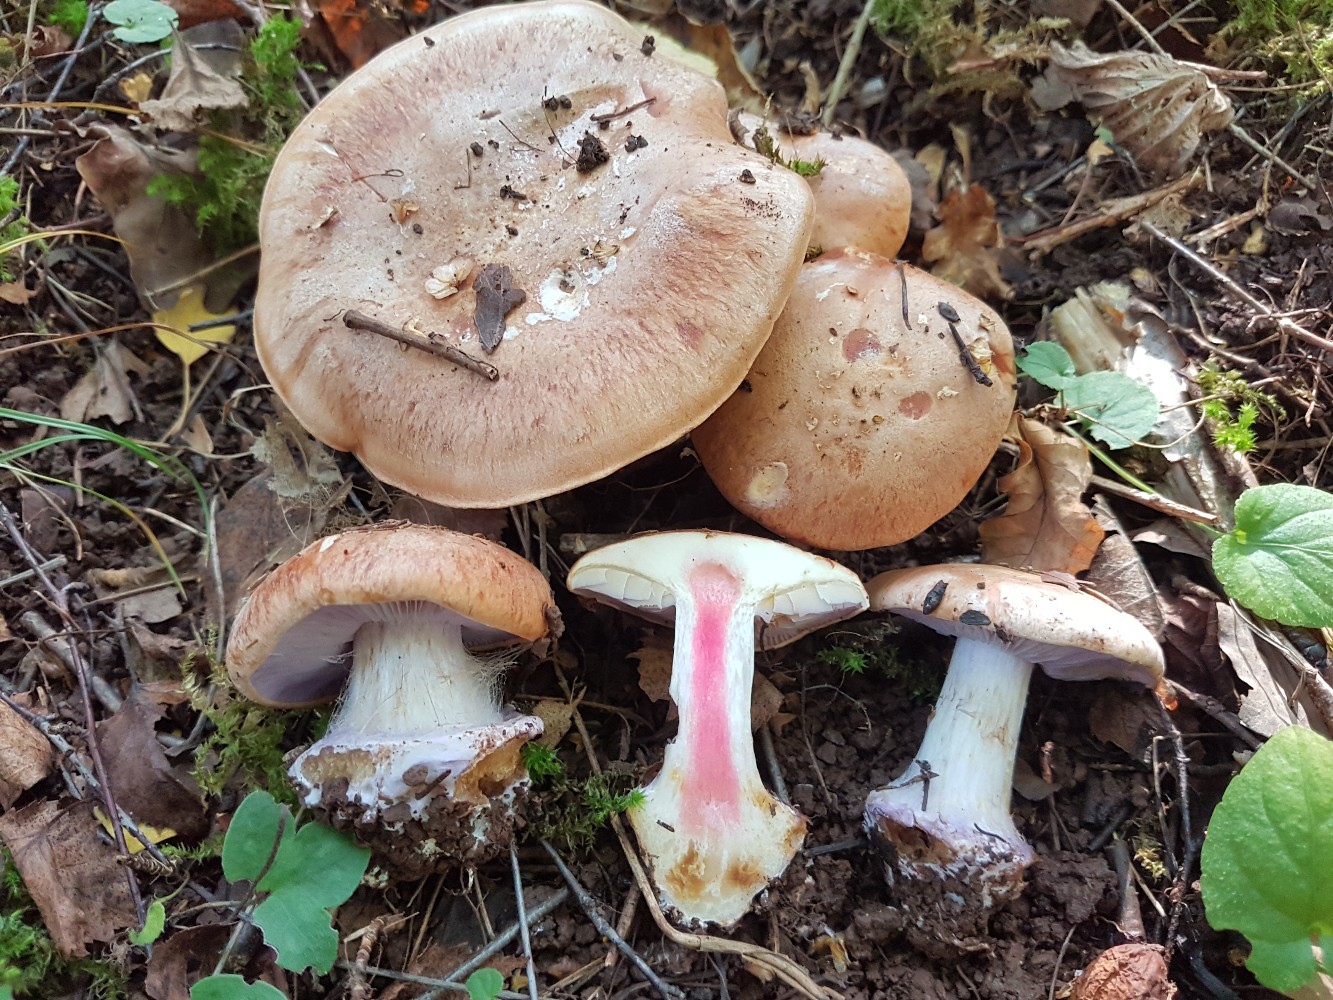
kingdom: Fungi
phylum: Basidiomycota
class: Agaricomycetes
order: Agaricales
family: Cortinariaceae
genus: Calonarius
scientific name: Calonarius arcuatorum
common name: violetflaget slørhat
